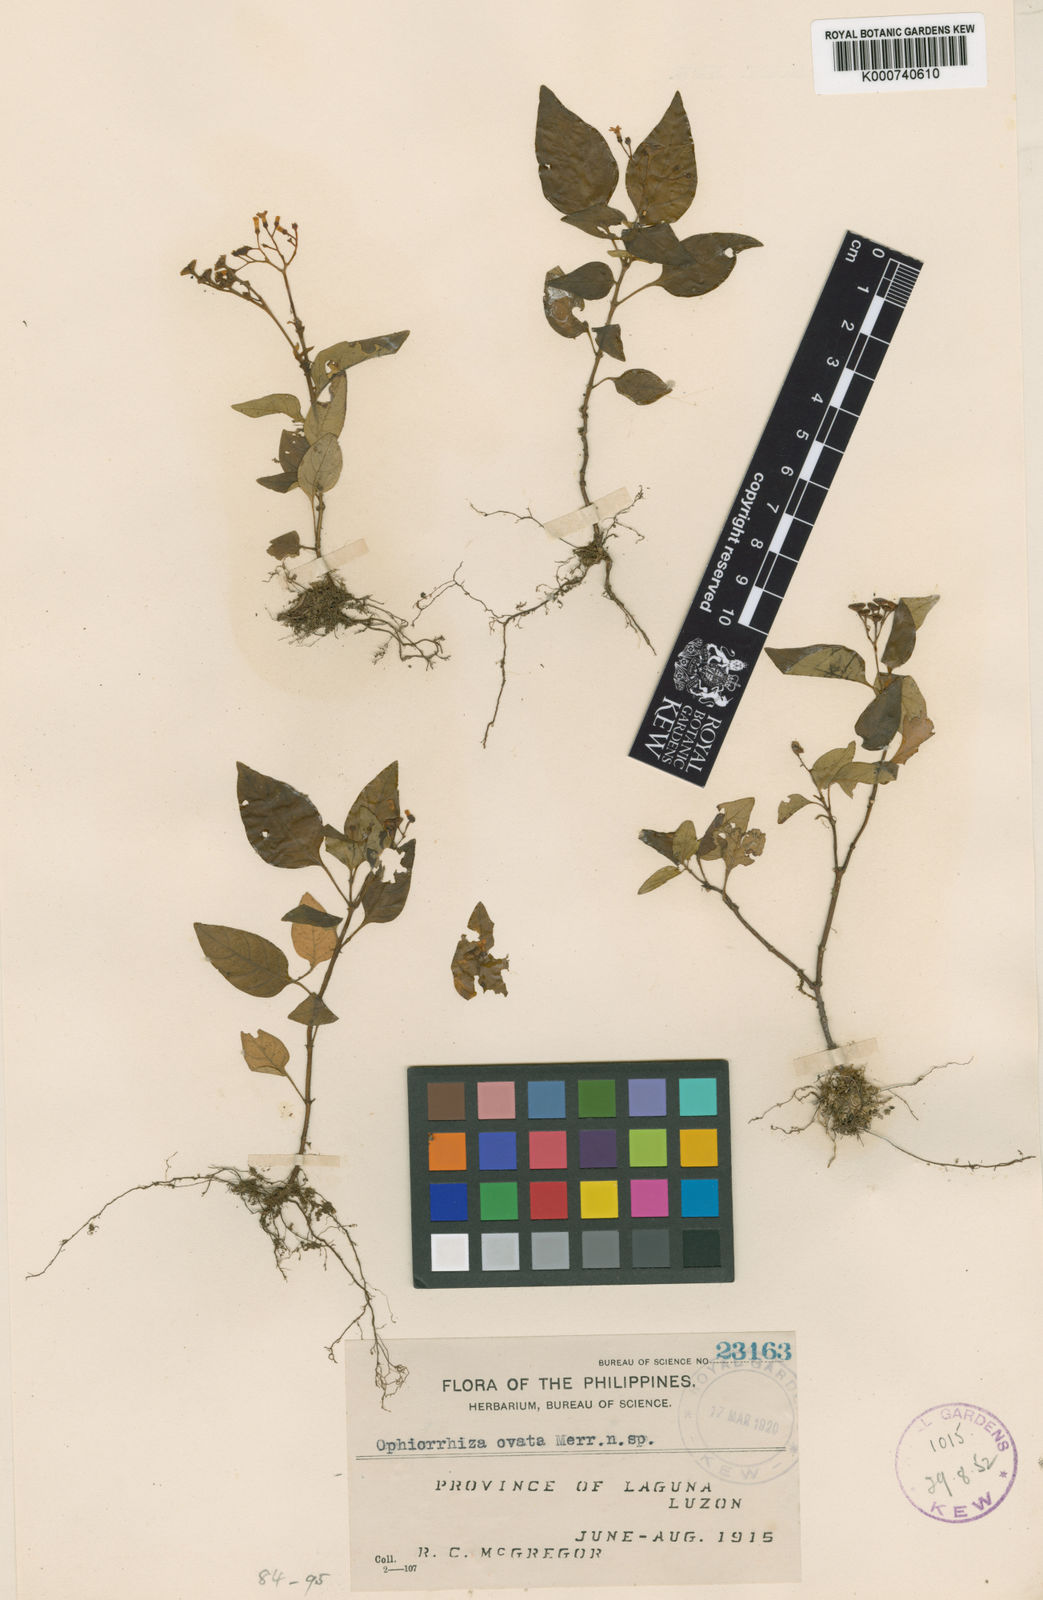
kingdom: Plantae
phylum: Tracheophyta
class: Magnoliopsida
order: Gentianales
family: Rubiaceae
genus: Ophiorrhiza
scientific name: Ophiorrhiza ovata
